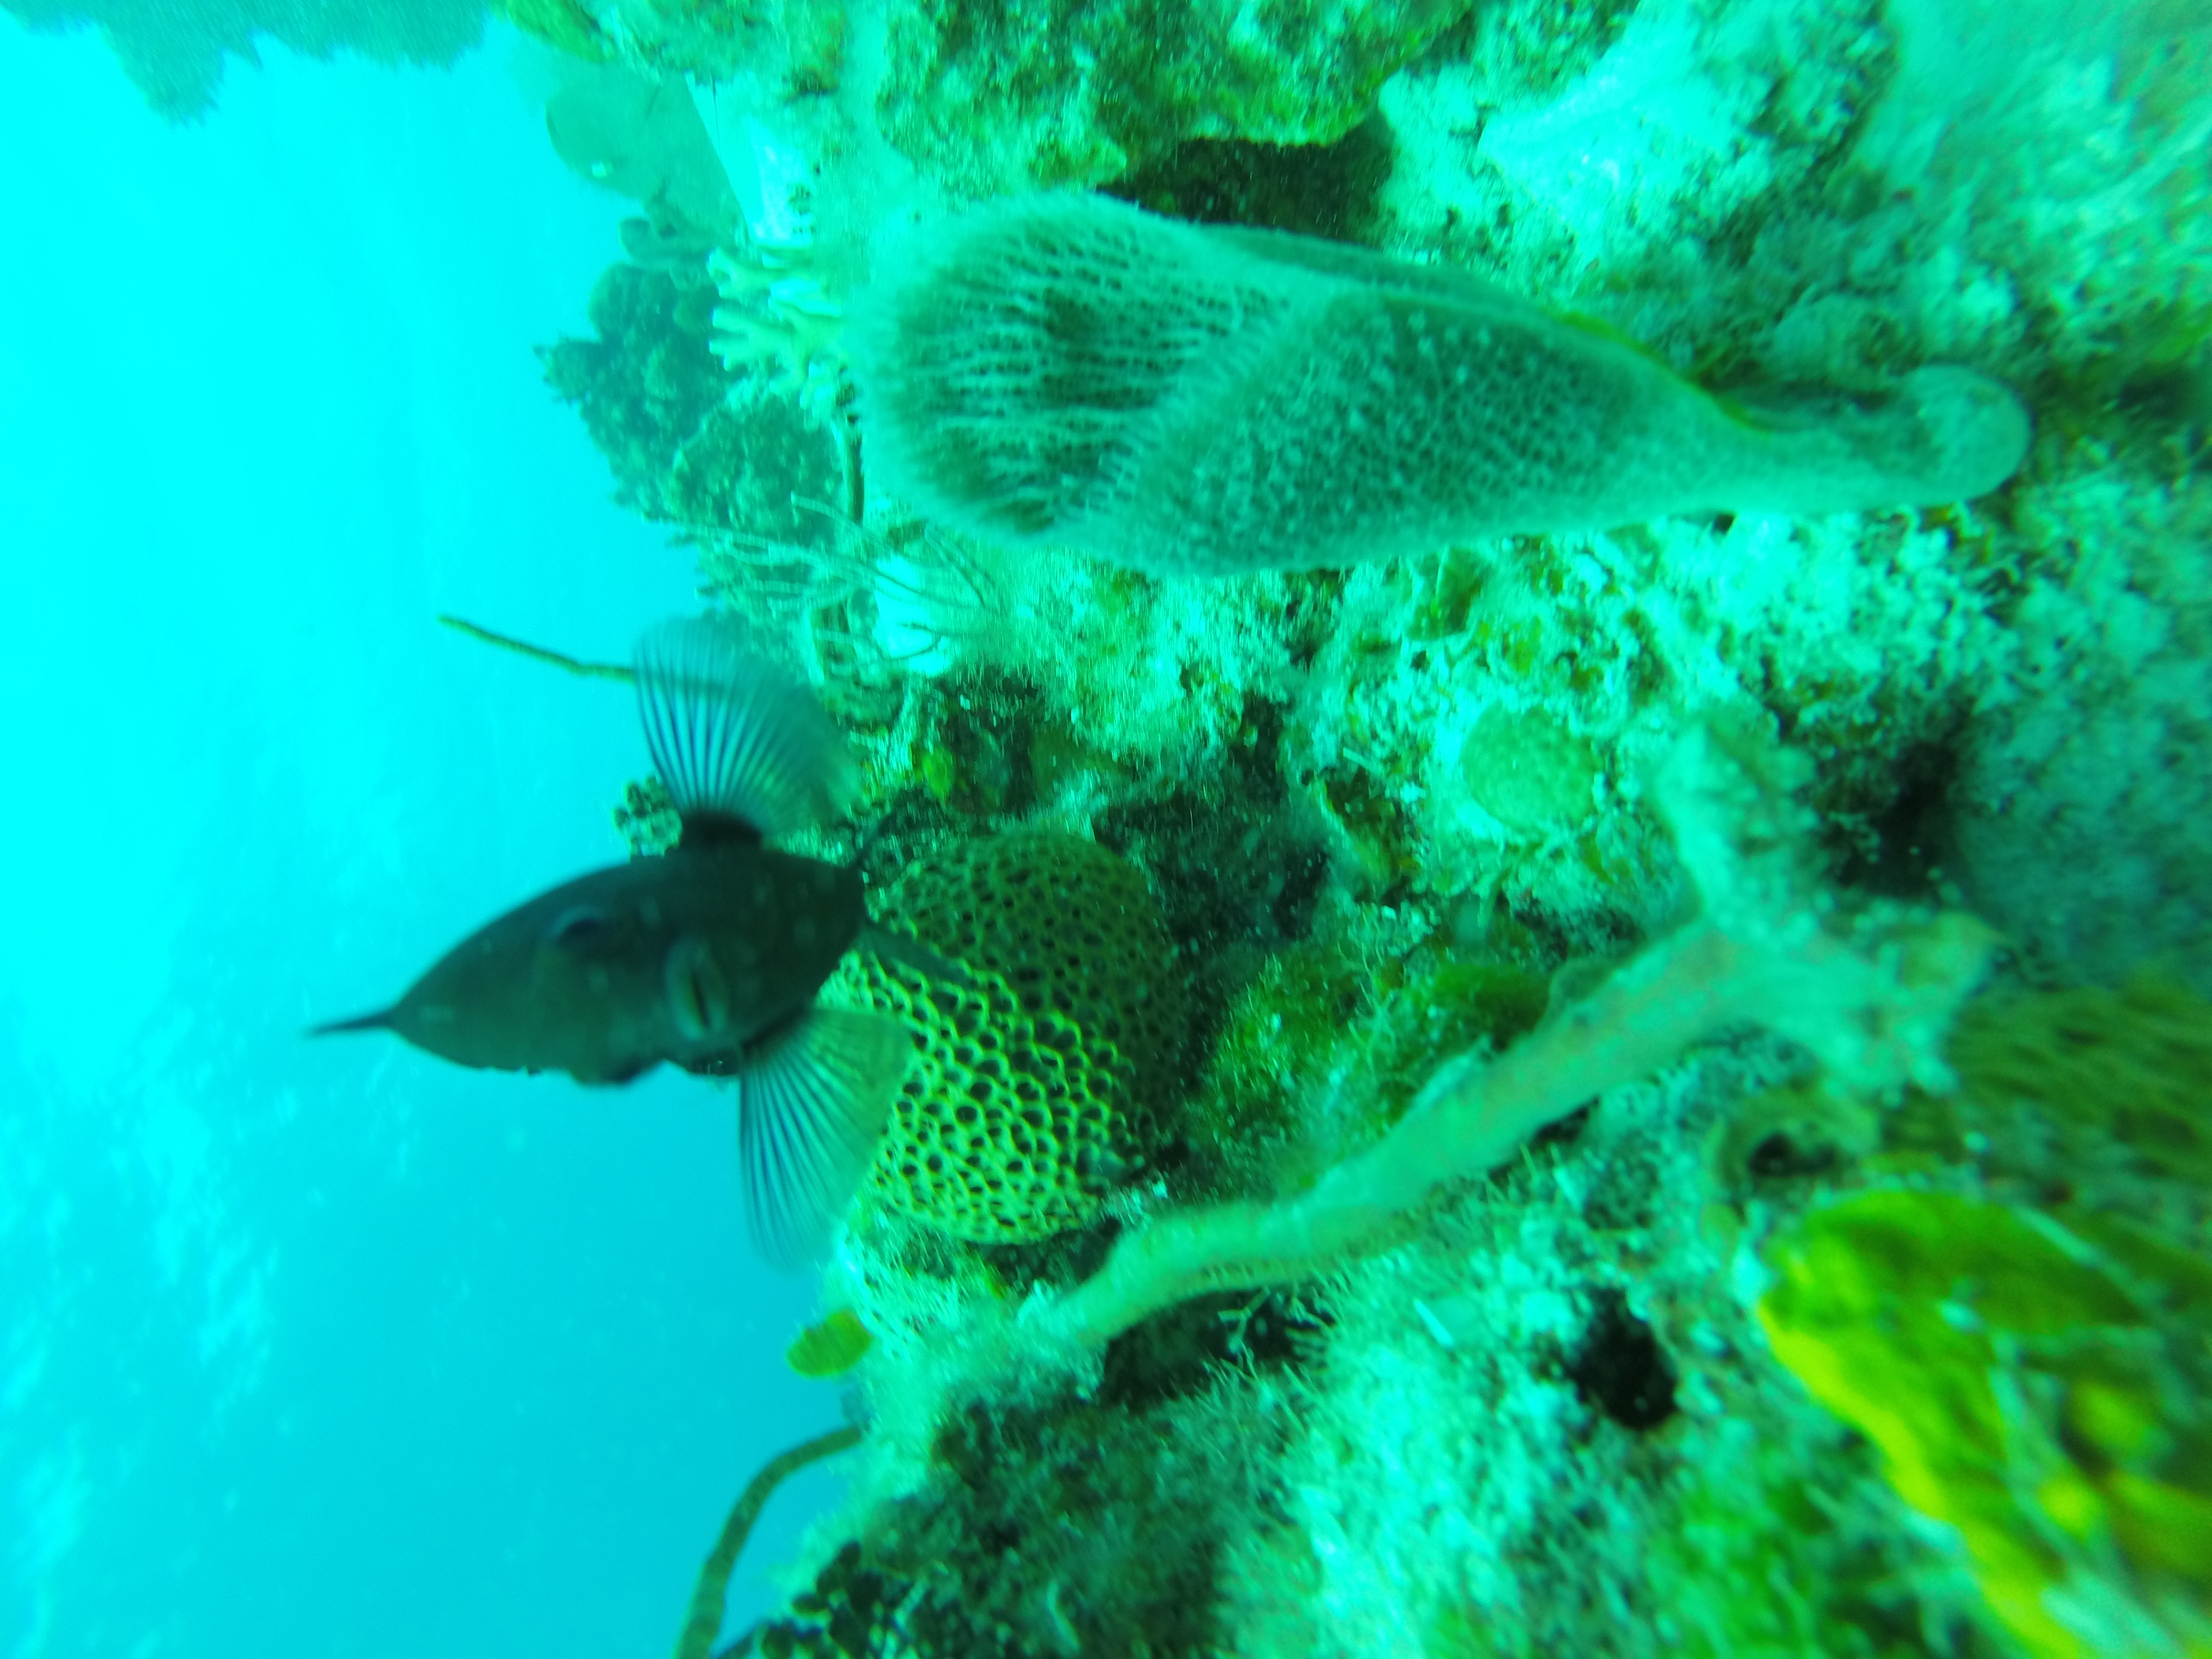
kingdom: Animalia
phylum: Porifera
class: Demospongiae
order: Haplosclerida
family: Niphatidae
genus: Niphates
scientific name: Niphates digitalis
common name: Pink vase sponge
